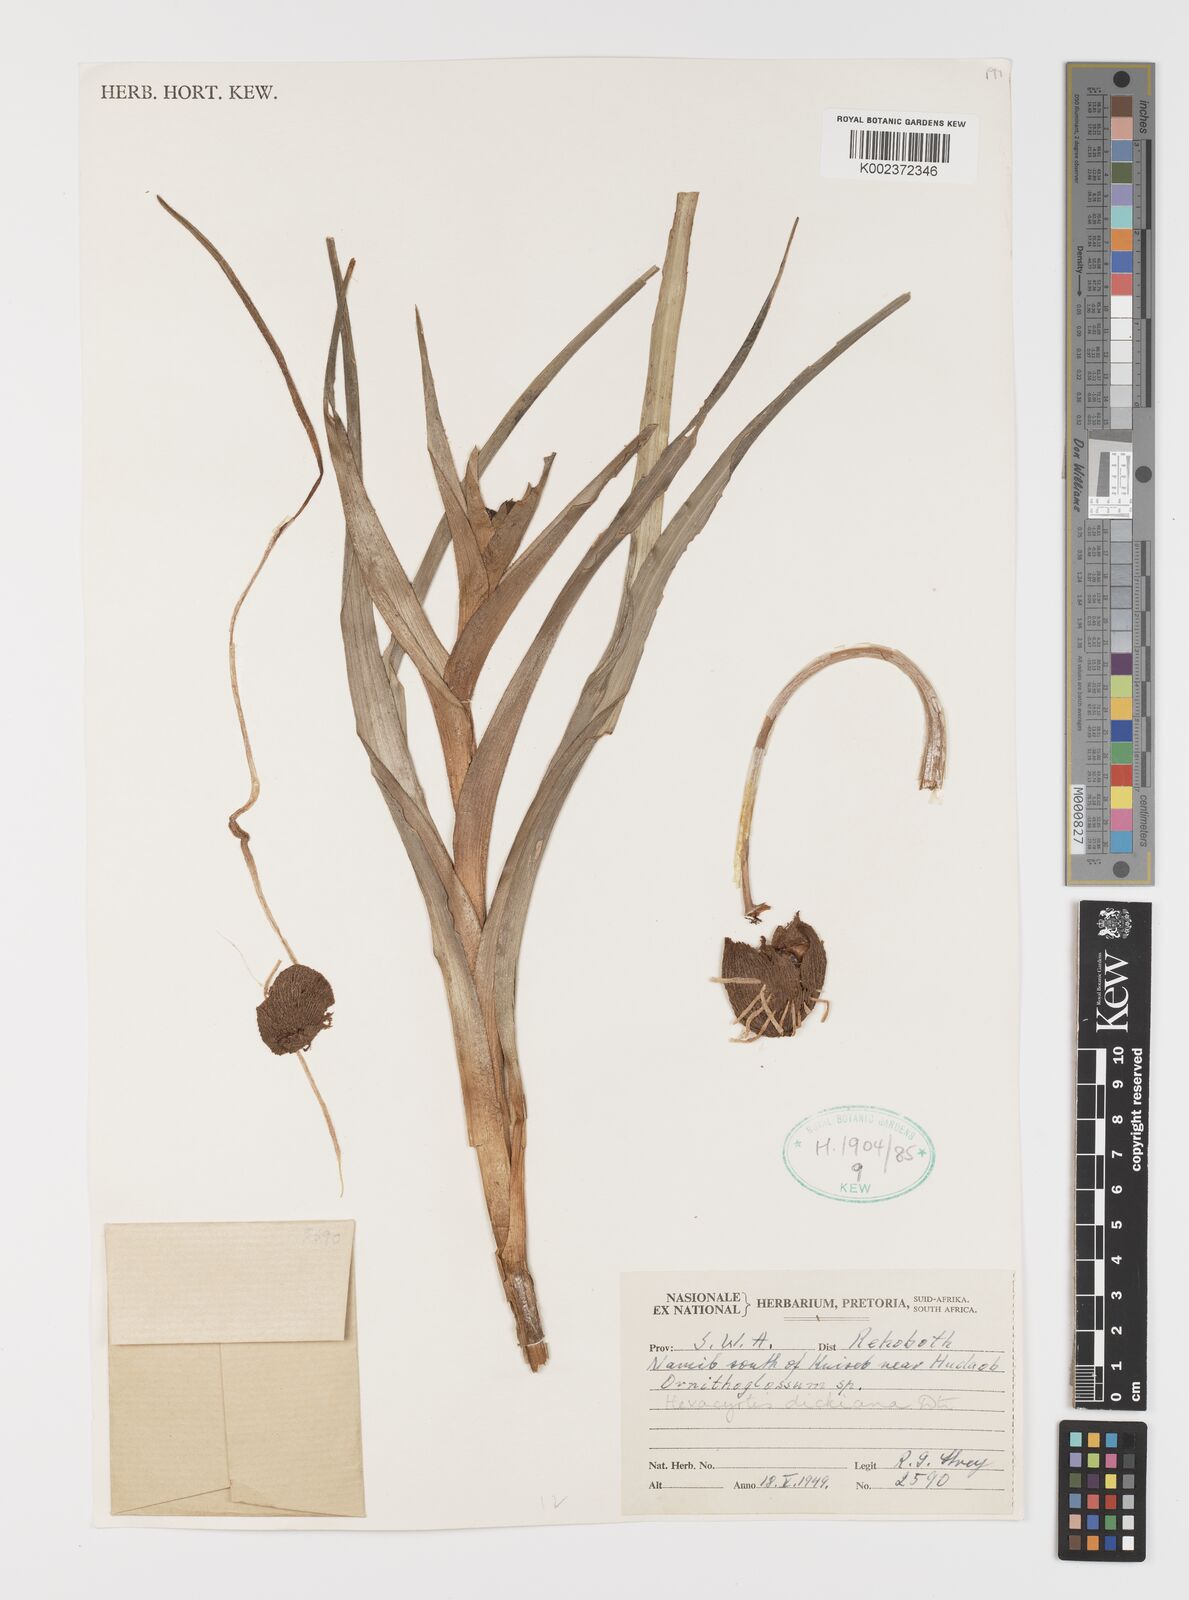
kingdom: Plantae
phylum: Tracheophyta
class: Liliopsida
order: Liliales
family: Colchicaceae
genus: Hexacyrtis
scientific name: Hexacyrtis dickiana
